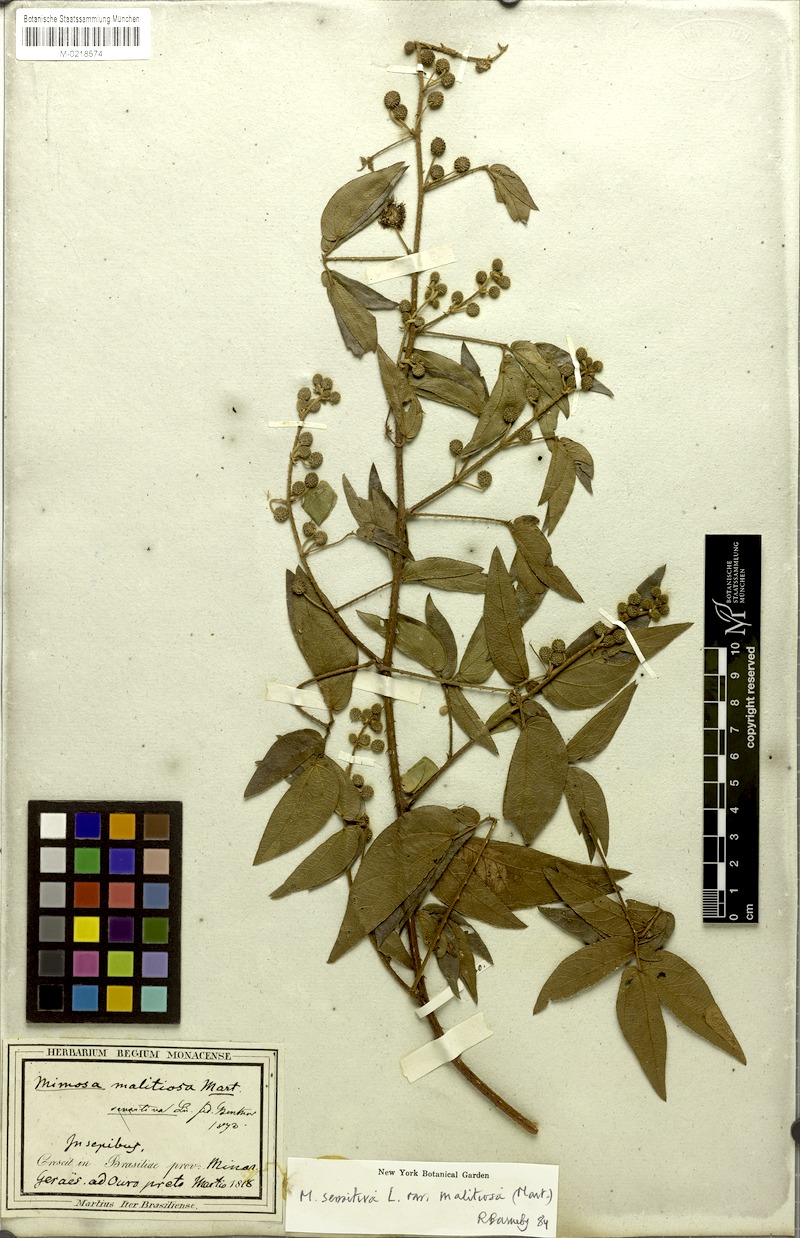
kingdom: Plantae
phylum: Tracheophyta
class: Magnoliopsida
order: Fabales
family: Fabaceae
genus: Mimosa
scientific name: Mimosa sensitiva
